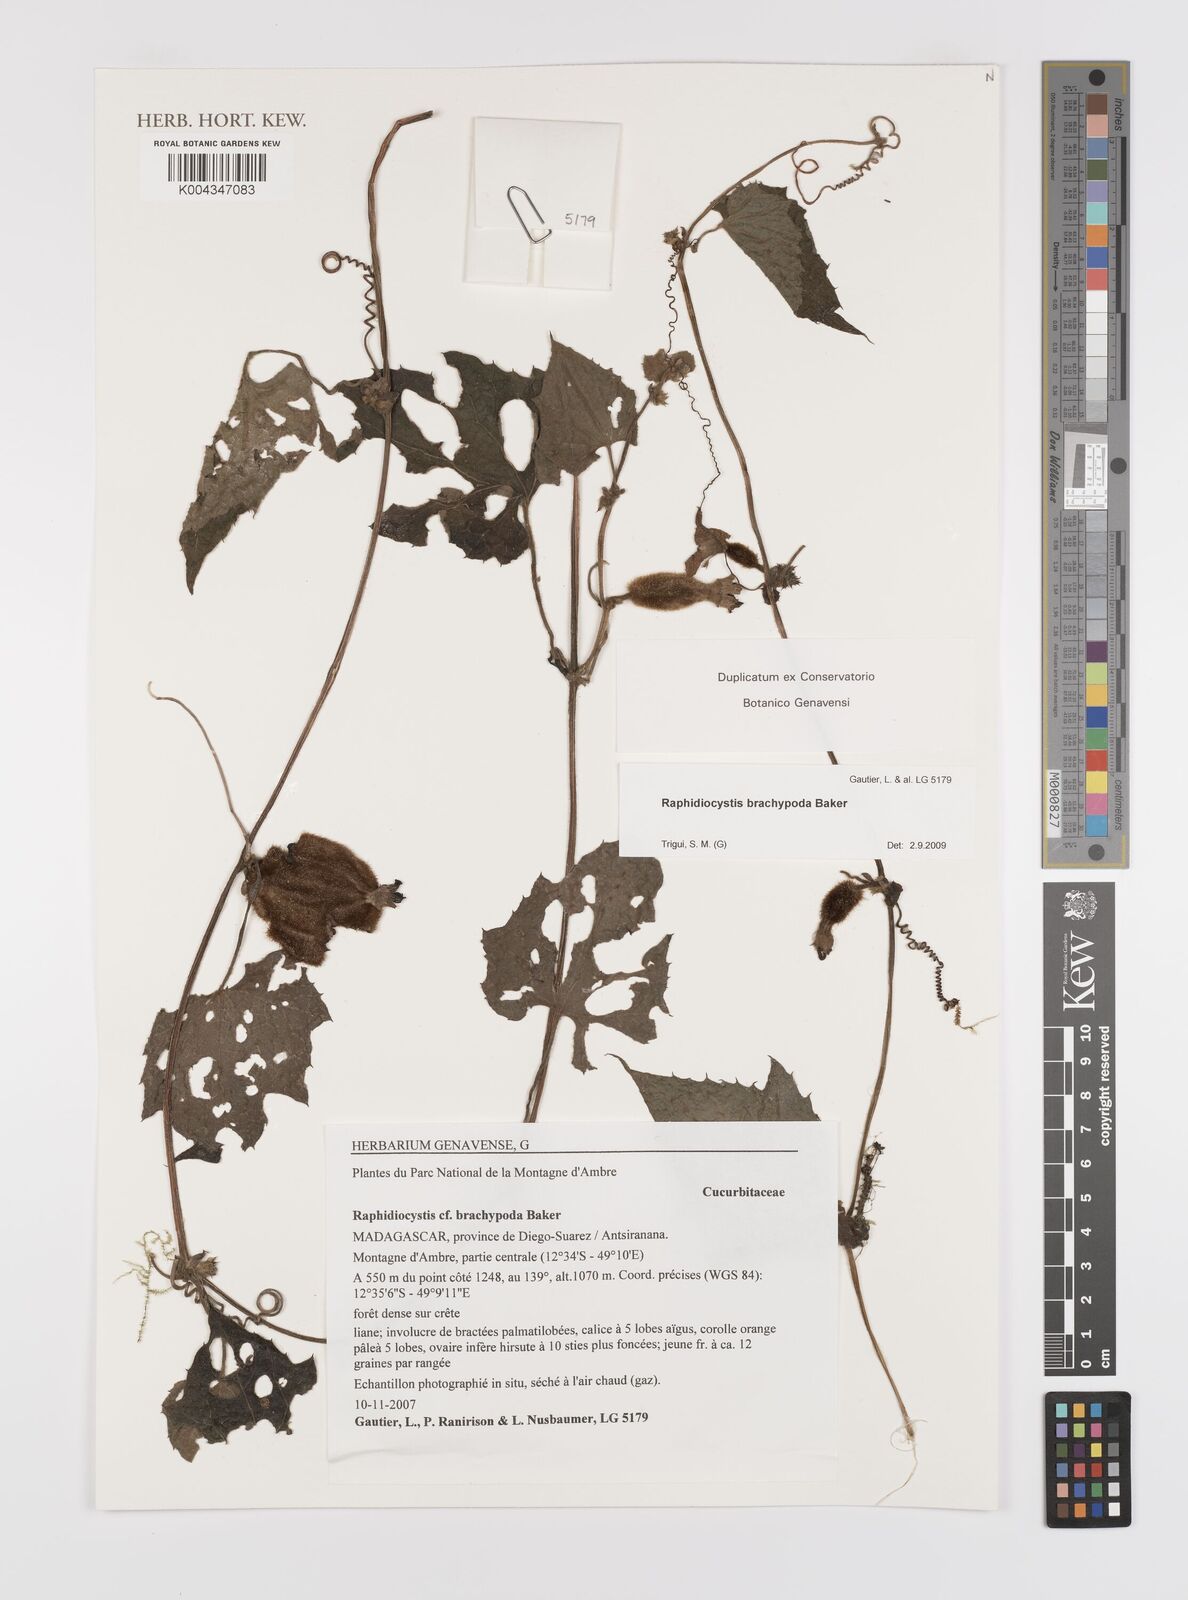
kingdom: Plantae
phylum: Tracheophyta
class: Magnoliopsida
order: Cucurbitales
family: Cucurbitaceae
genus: Raphidiocystis
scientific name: Raphidiocystis brachypoda
